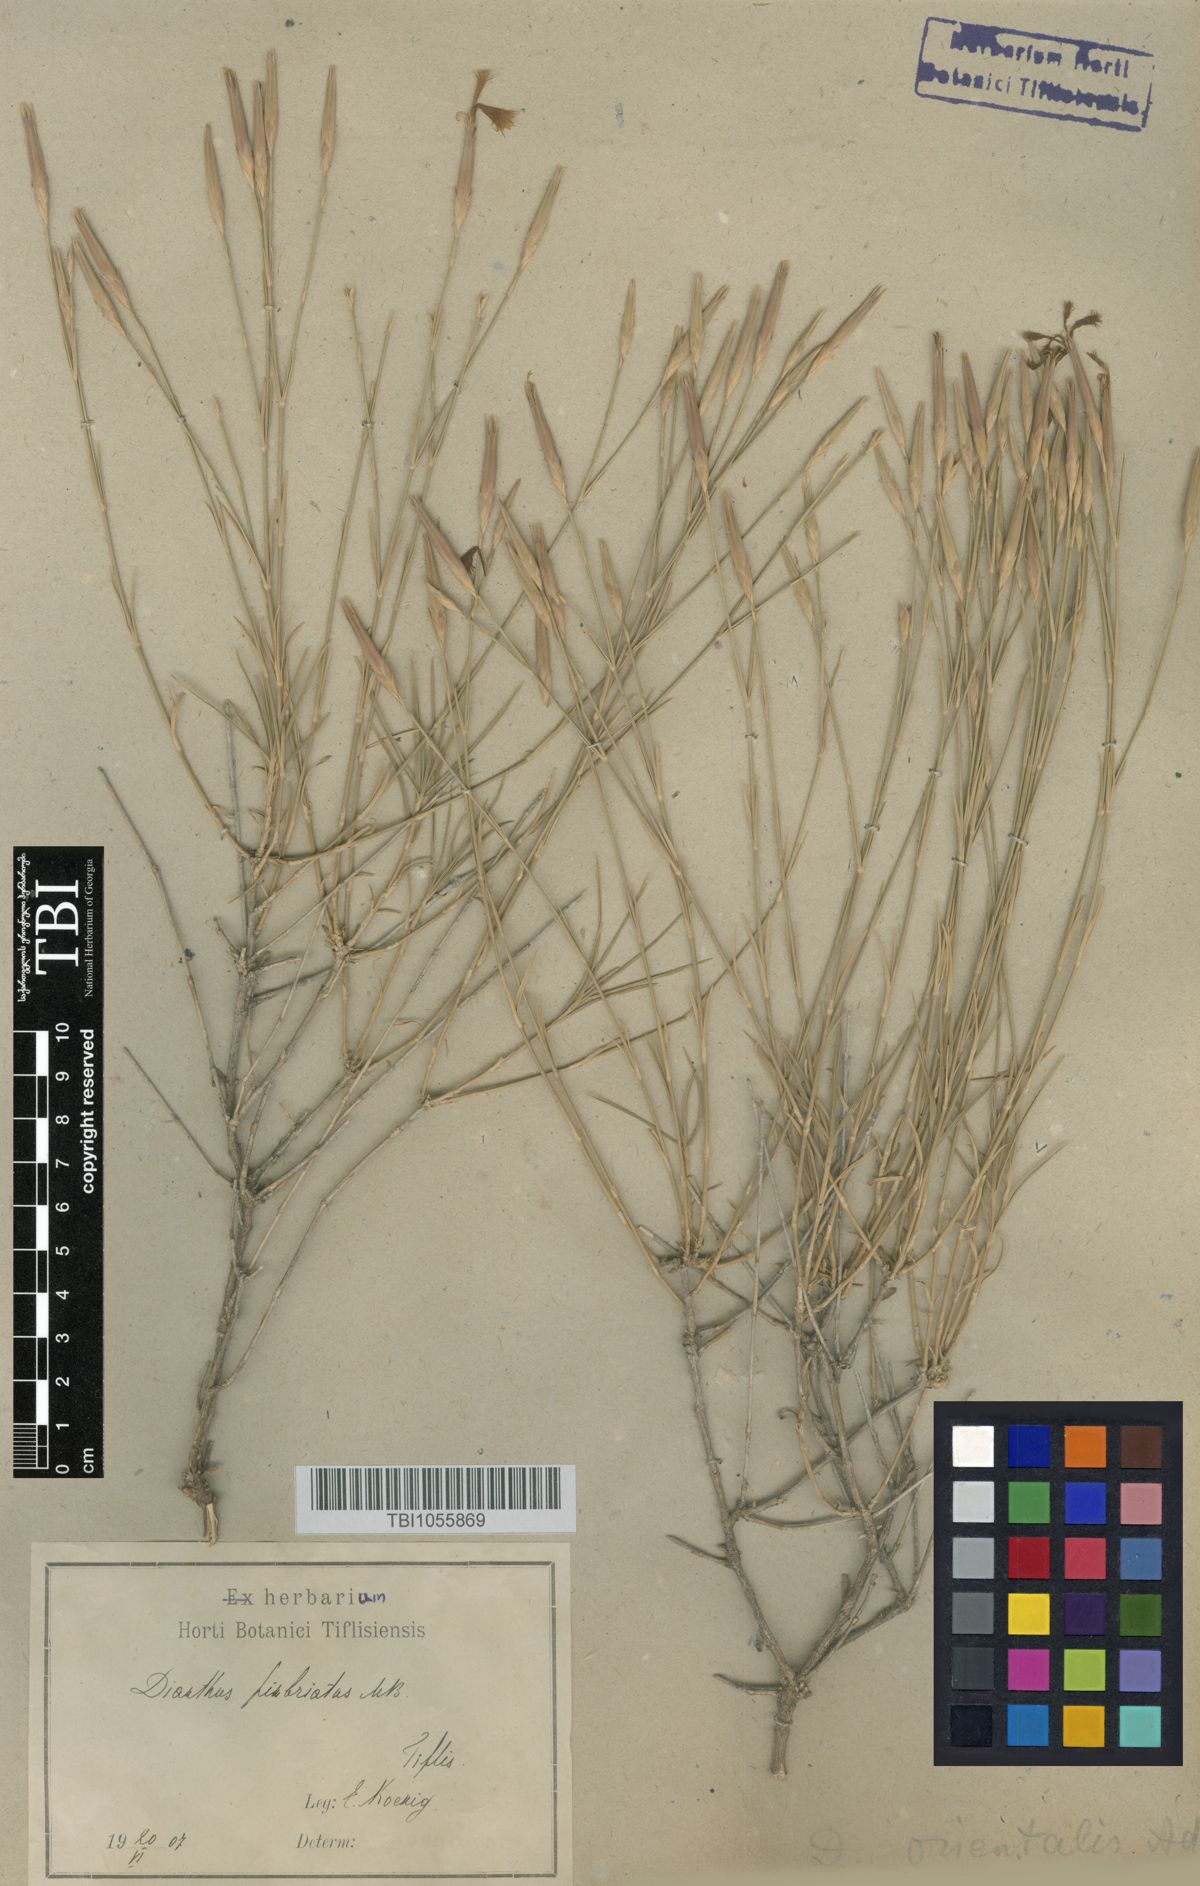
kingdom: Plantae
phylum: Tracheophyta
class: Magnoliopsida
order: Caryophyllales
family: Caryophyllaceae
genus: Dianthus
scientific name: Dianthus orientalis
